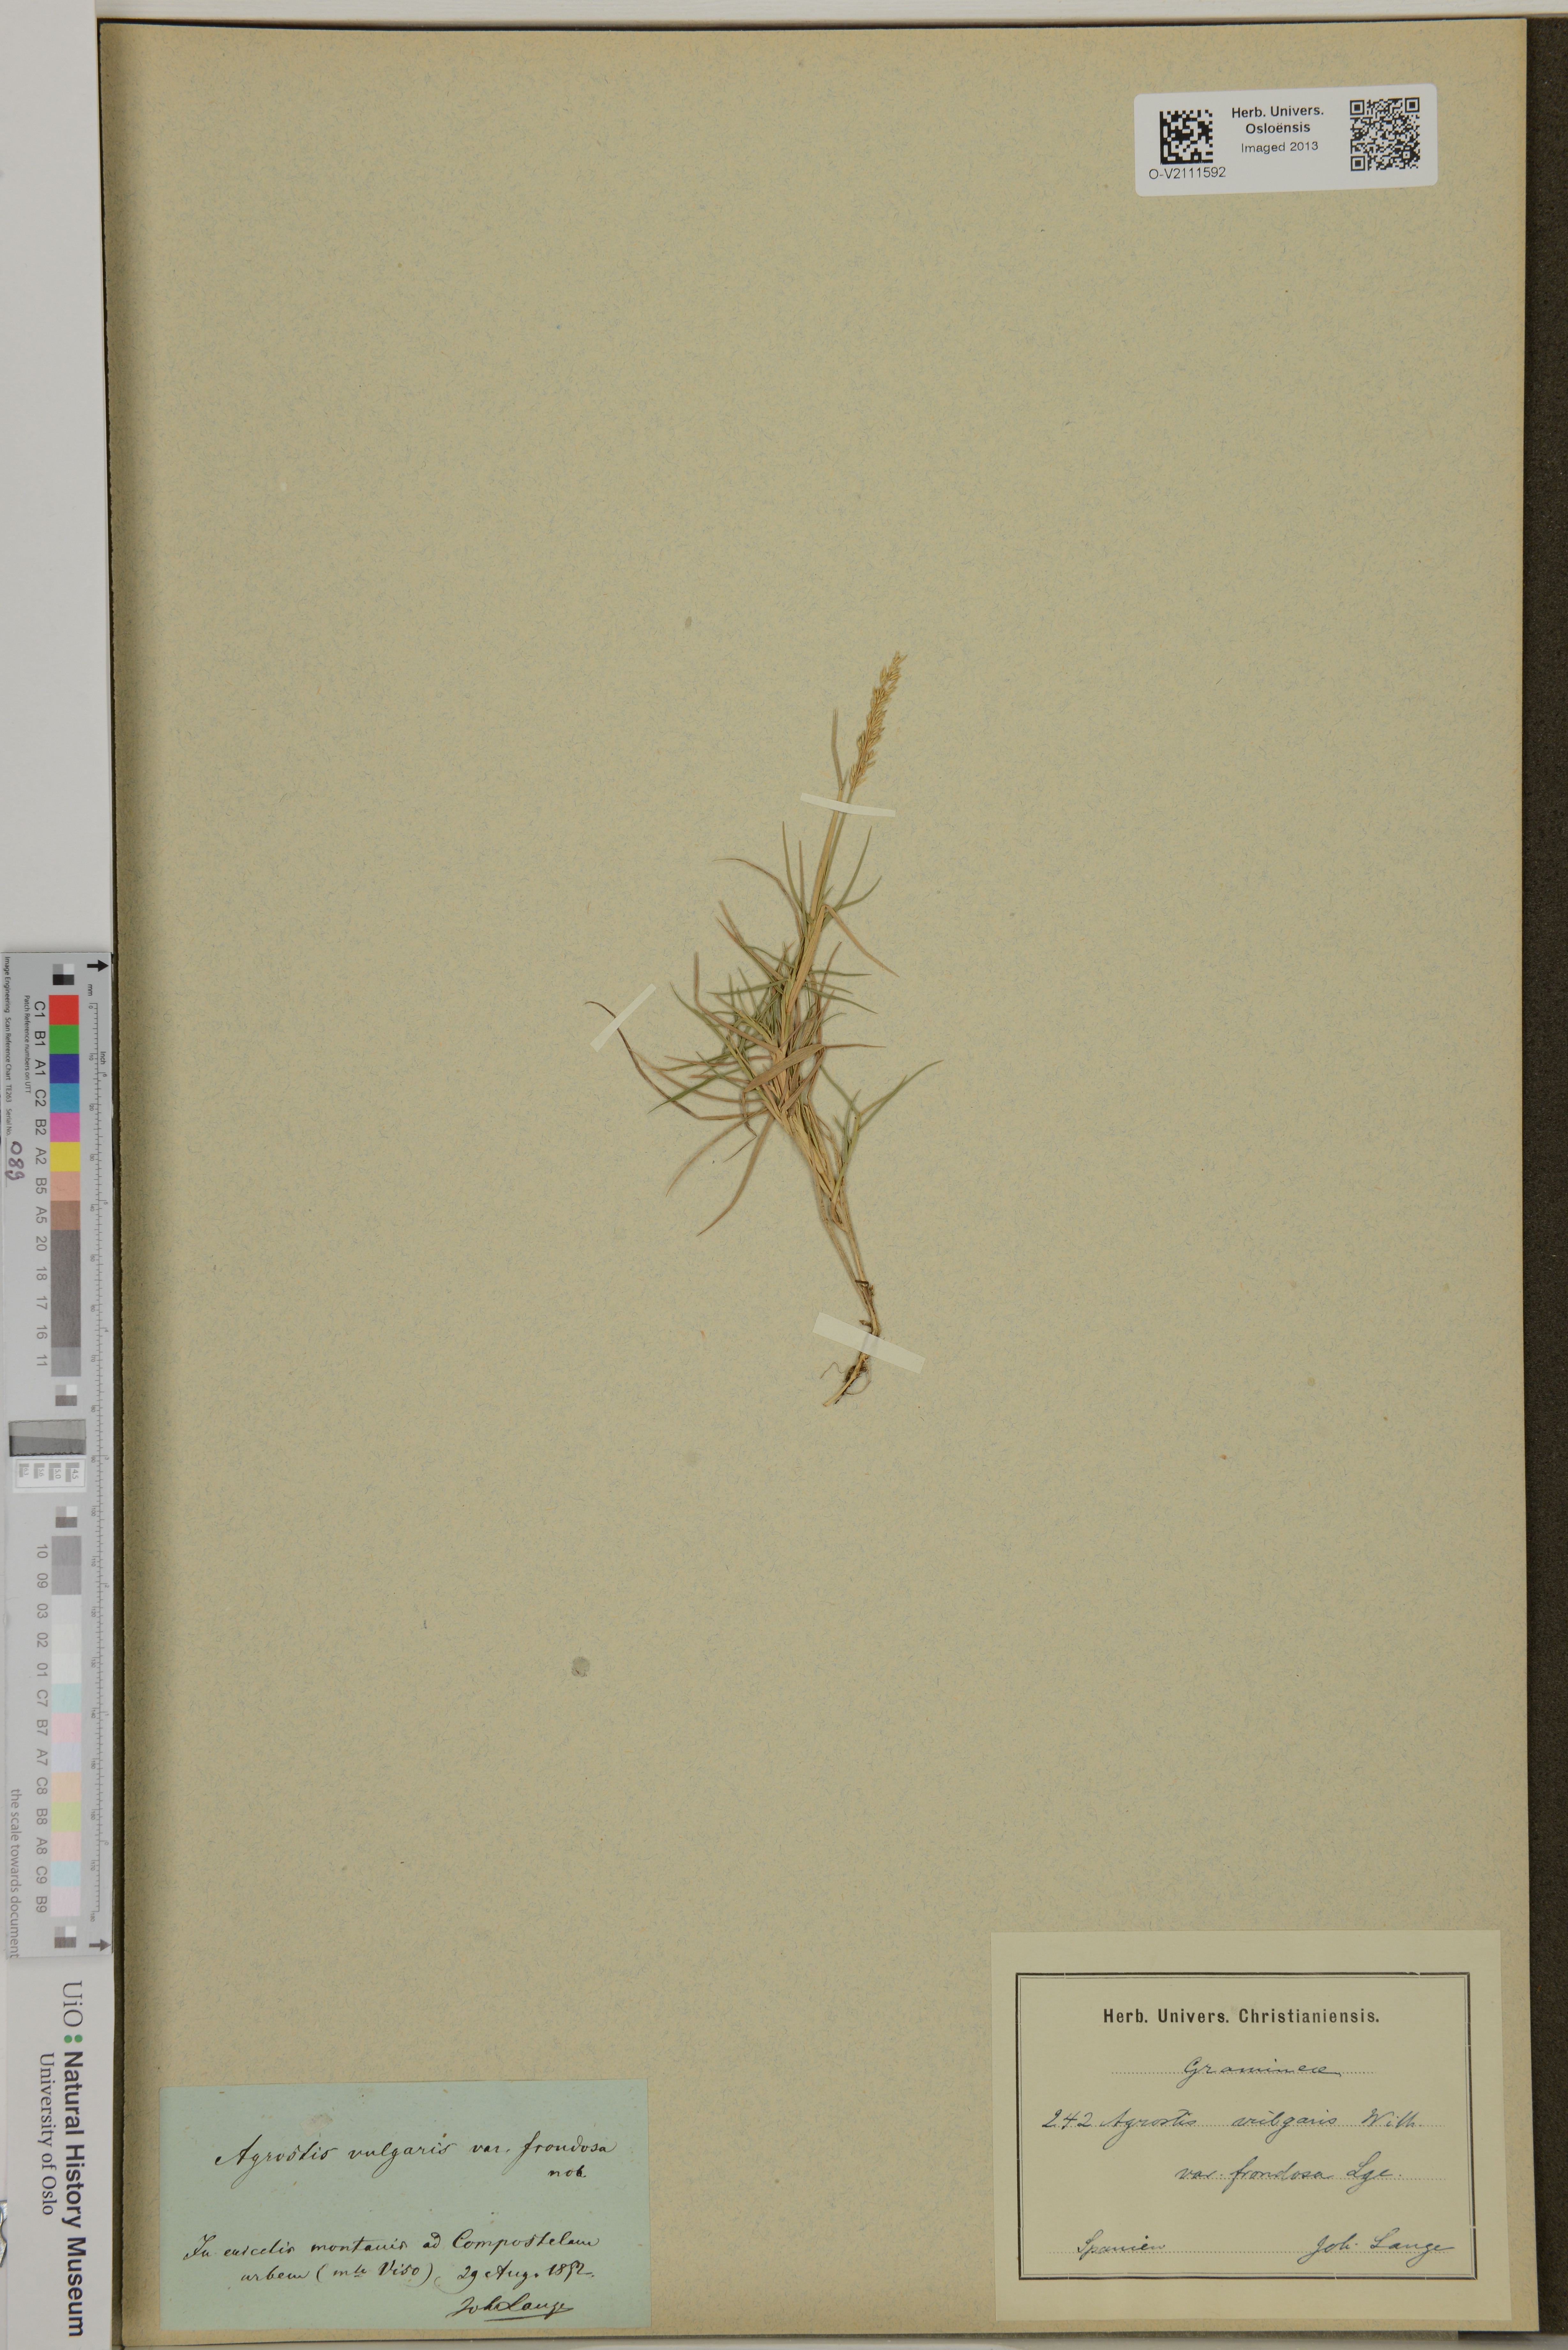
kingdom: Plantae
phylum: Tracheophyta
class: Liliopsida
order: Poales
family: Poaceae
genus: Agrostis
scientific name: Agrostis capillaris
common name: Colonial bentgrass
